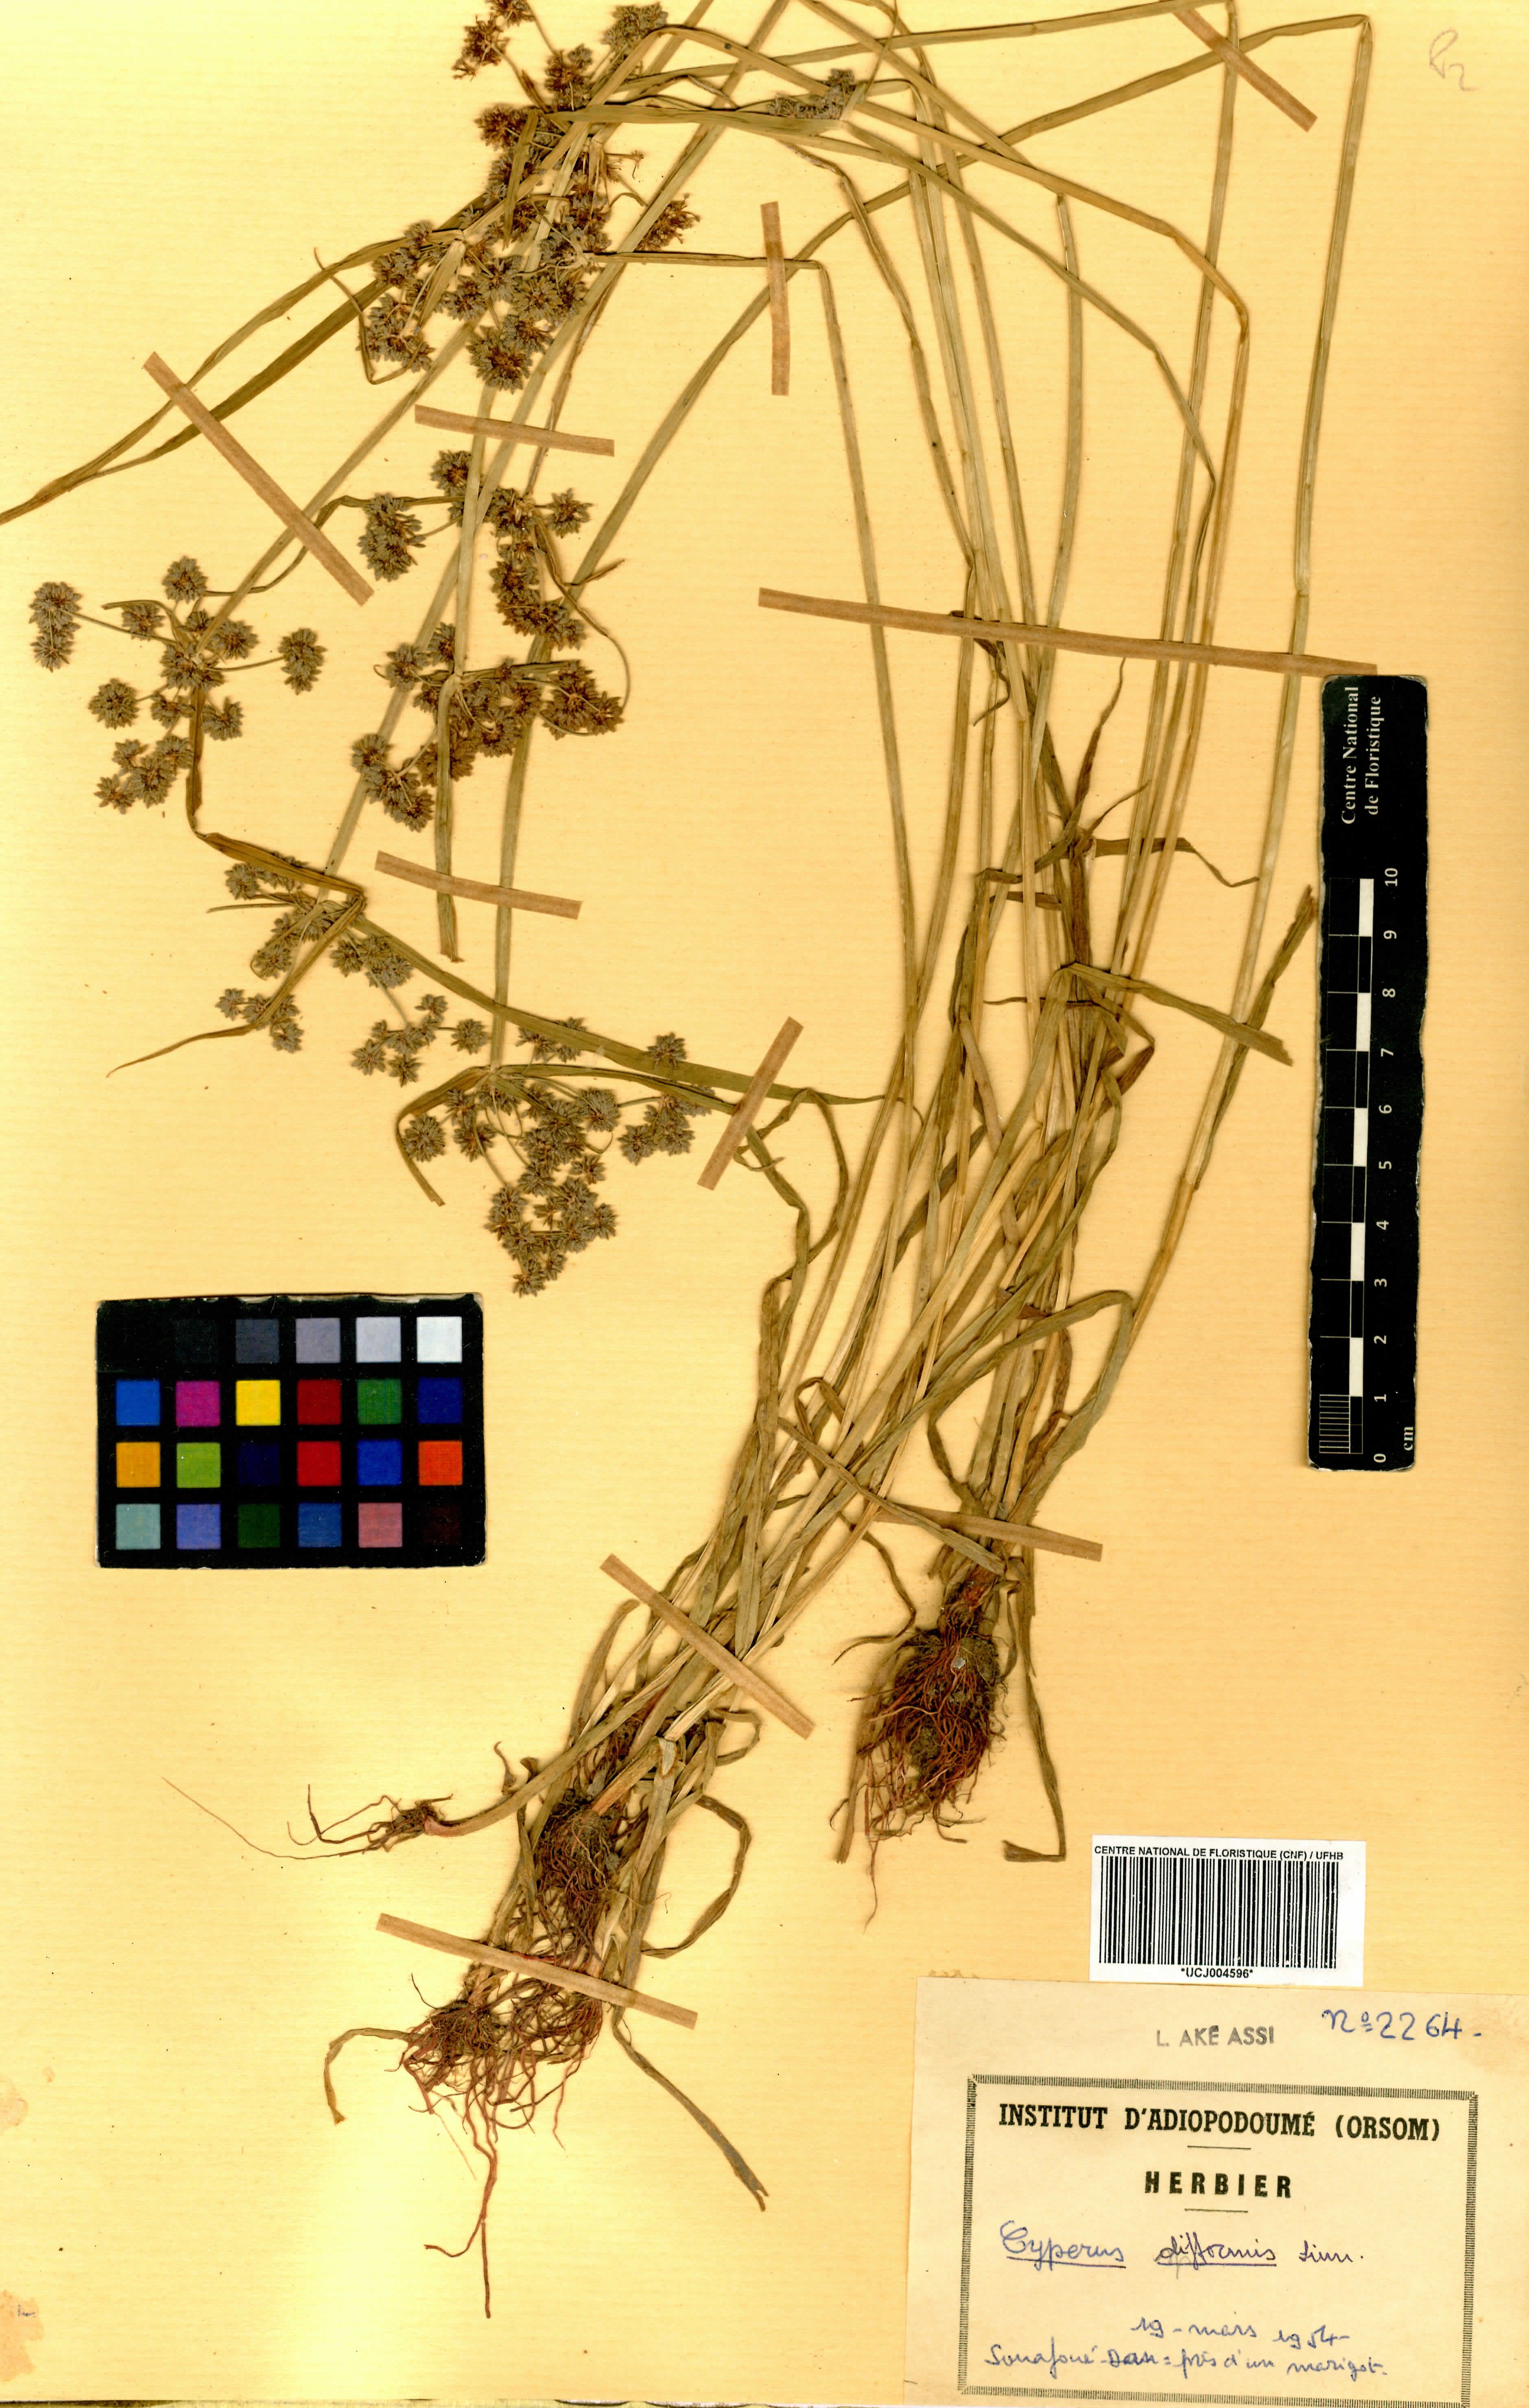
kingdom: Plantae
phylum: Tracheophyta
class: Liliopsida
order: Poales
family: Cyperaceae
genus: Cyperus
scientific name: Cyperus difformis
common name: Variable flatsedge
